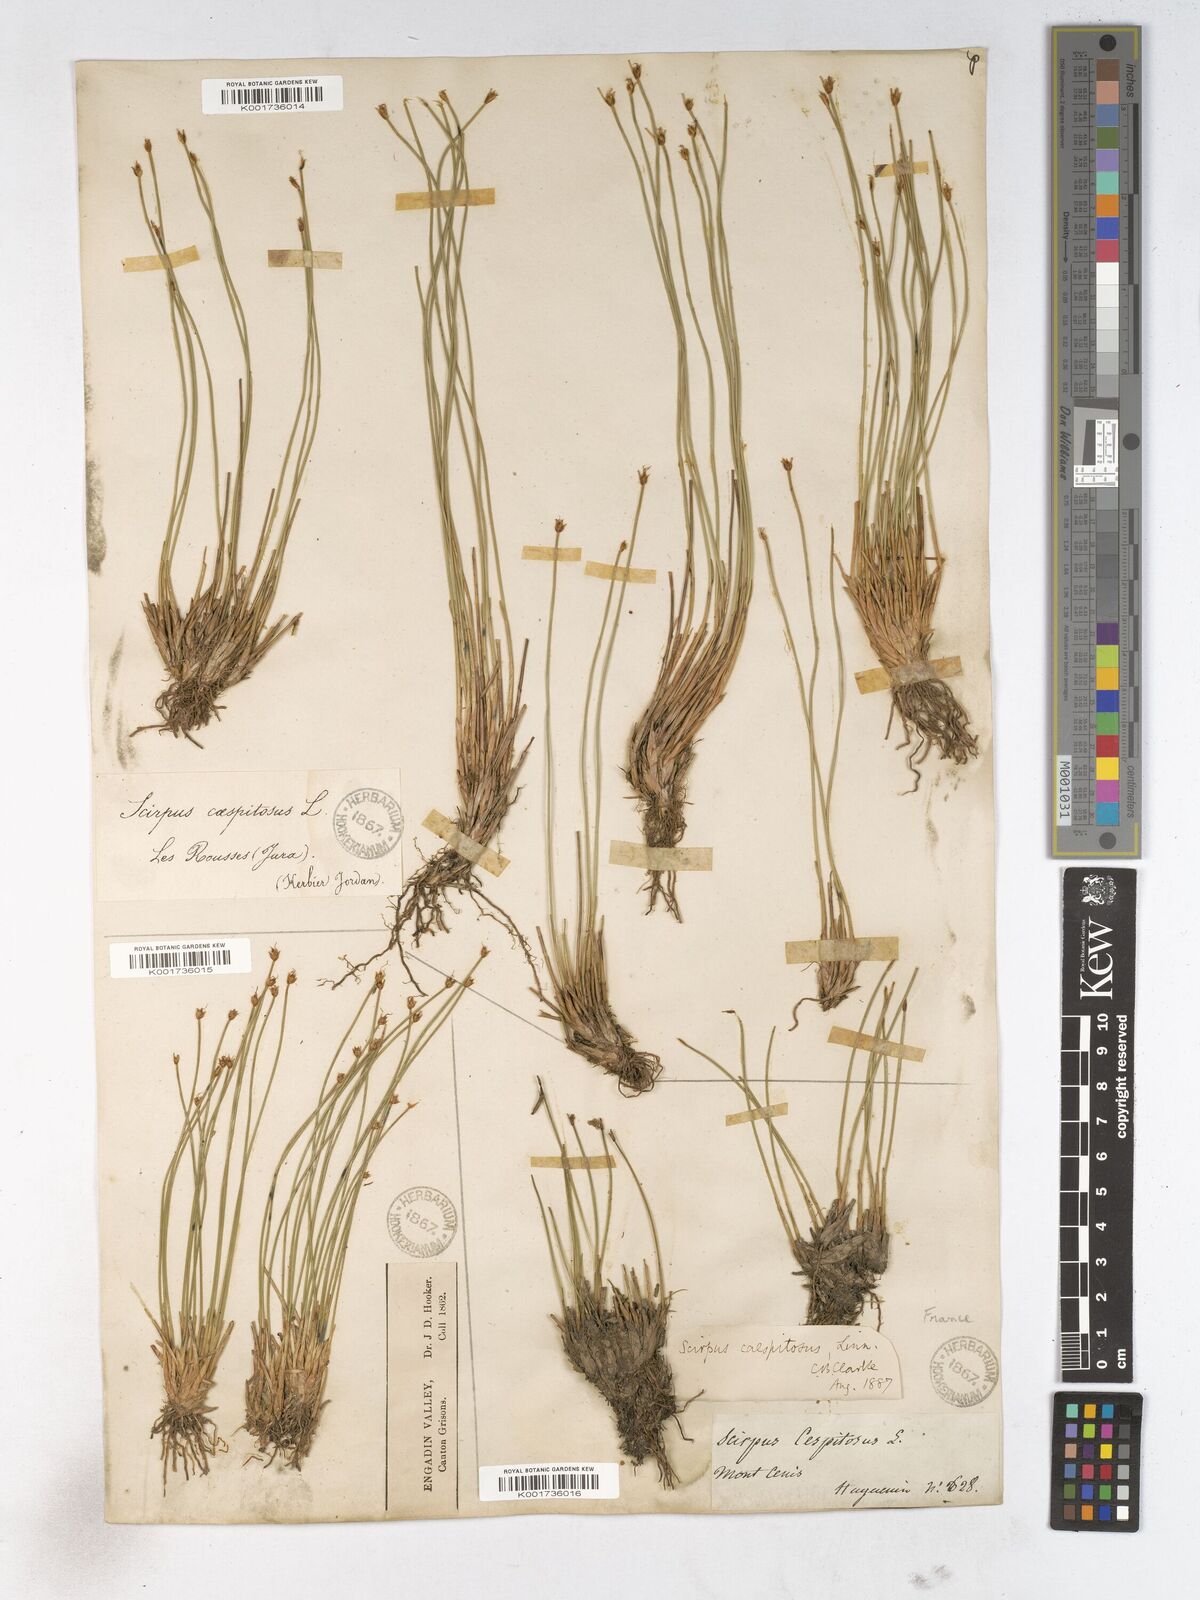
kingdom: Plantae
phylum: Tracheophyta
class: Liliopsida
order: Poales
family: Cyperaceae
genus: Trichophorum
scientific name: Trichophorum cespitosum
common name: Cespitose bulrush
